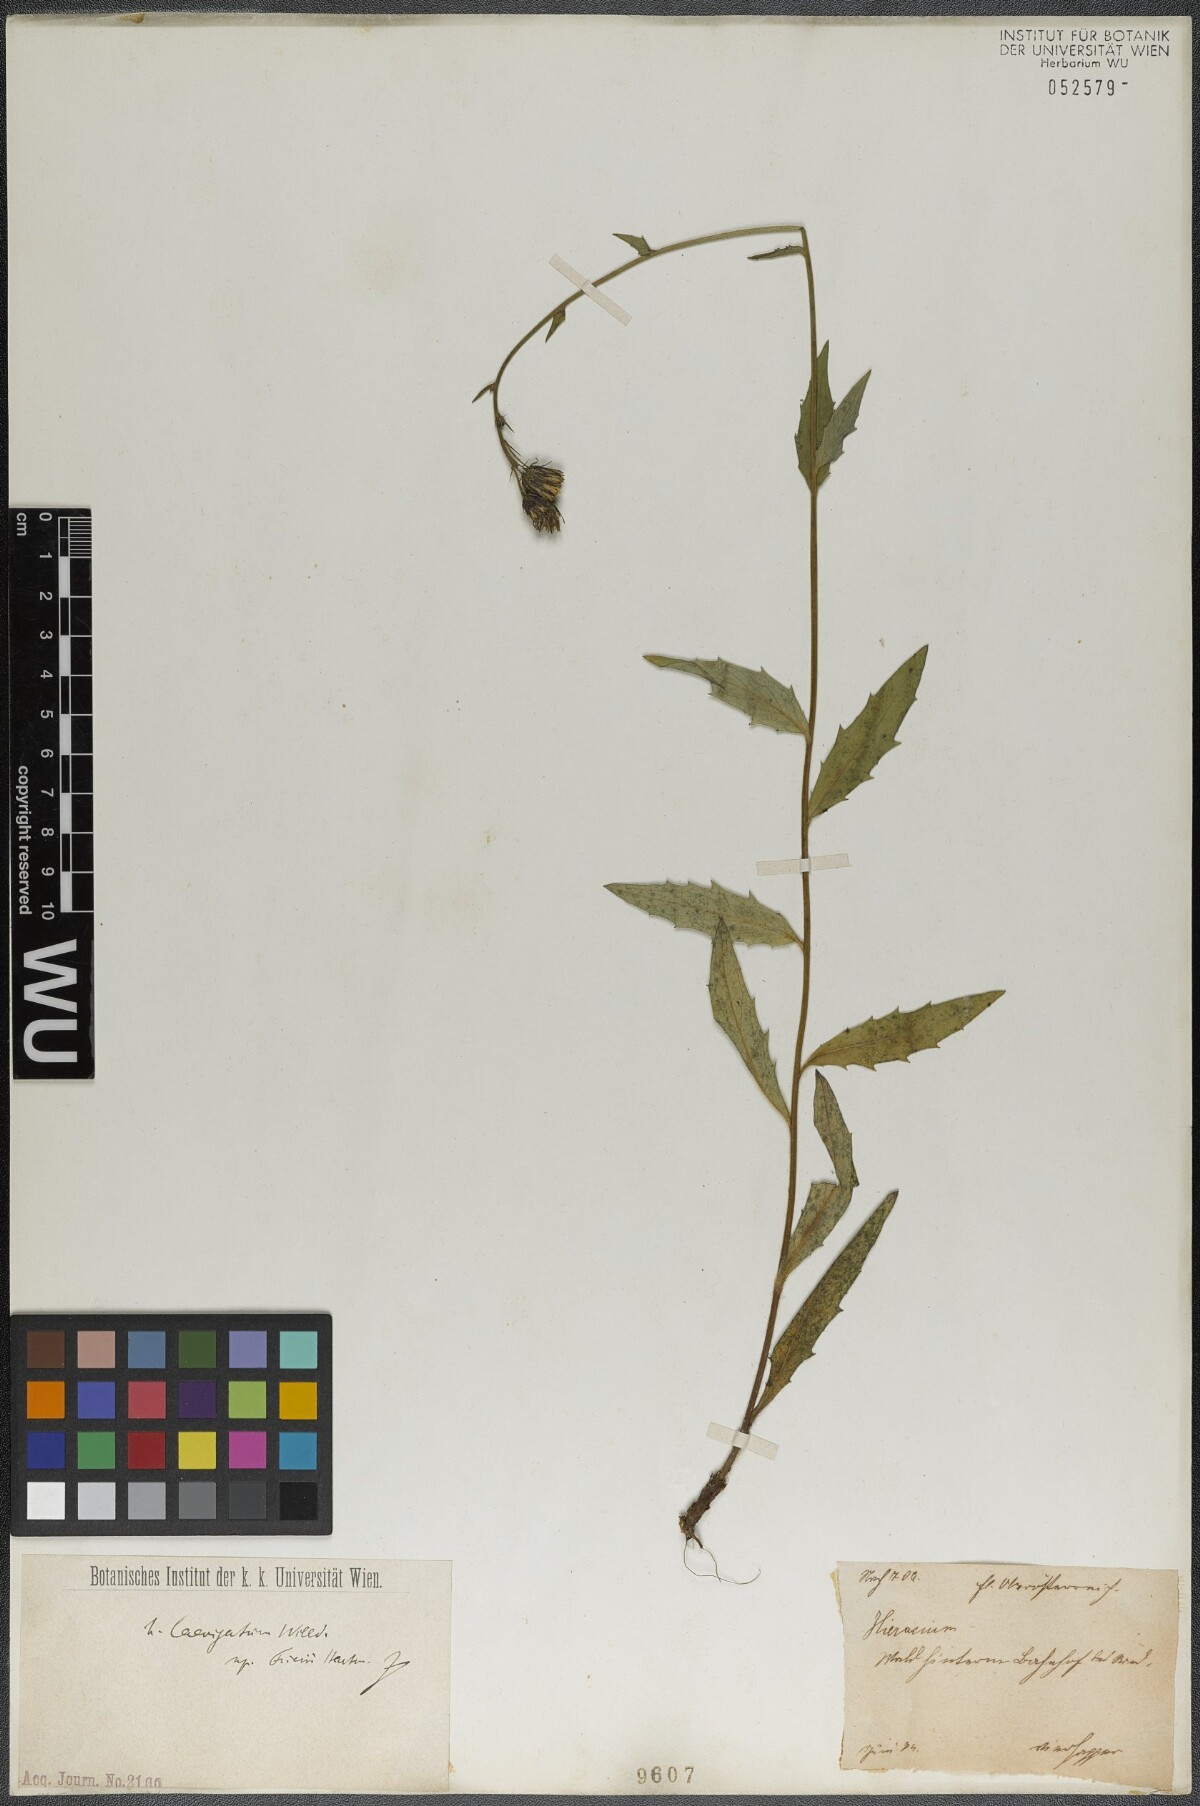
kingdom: Plantae
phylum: Tracheophyta
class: Magnoliopsida
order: Asterales
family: Asteraceae
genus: Hieracium
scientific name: Hieracium laevigatum
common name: Smooth hawkweed
